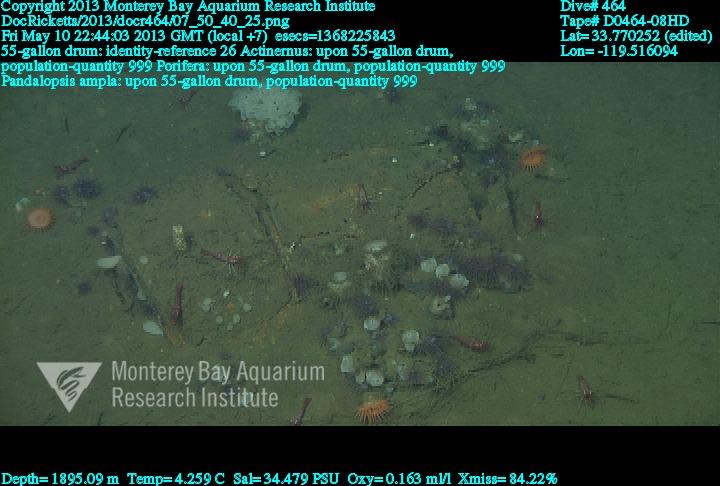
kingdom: Animalia
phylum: Porifera
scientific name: Porifera
